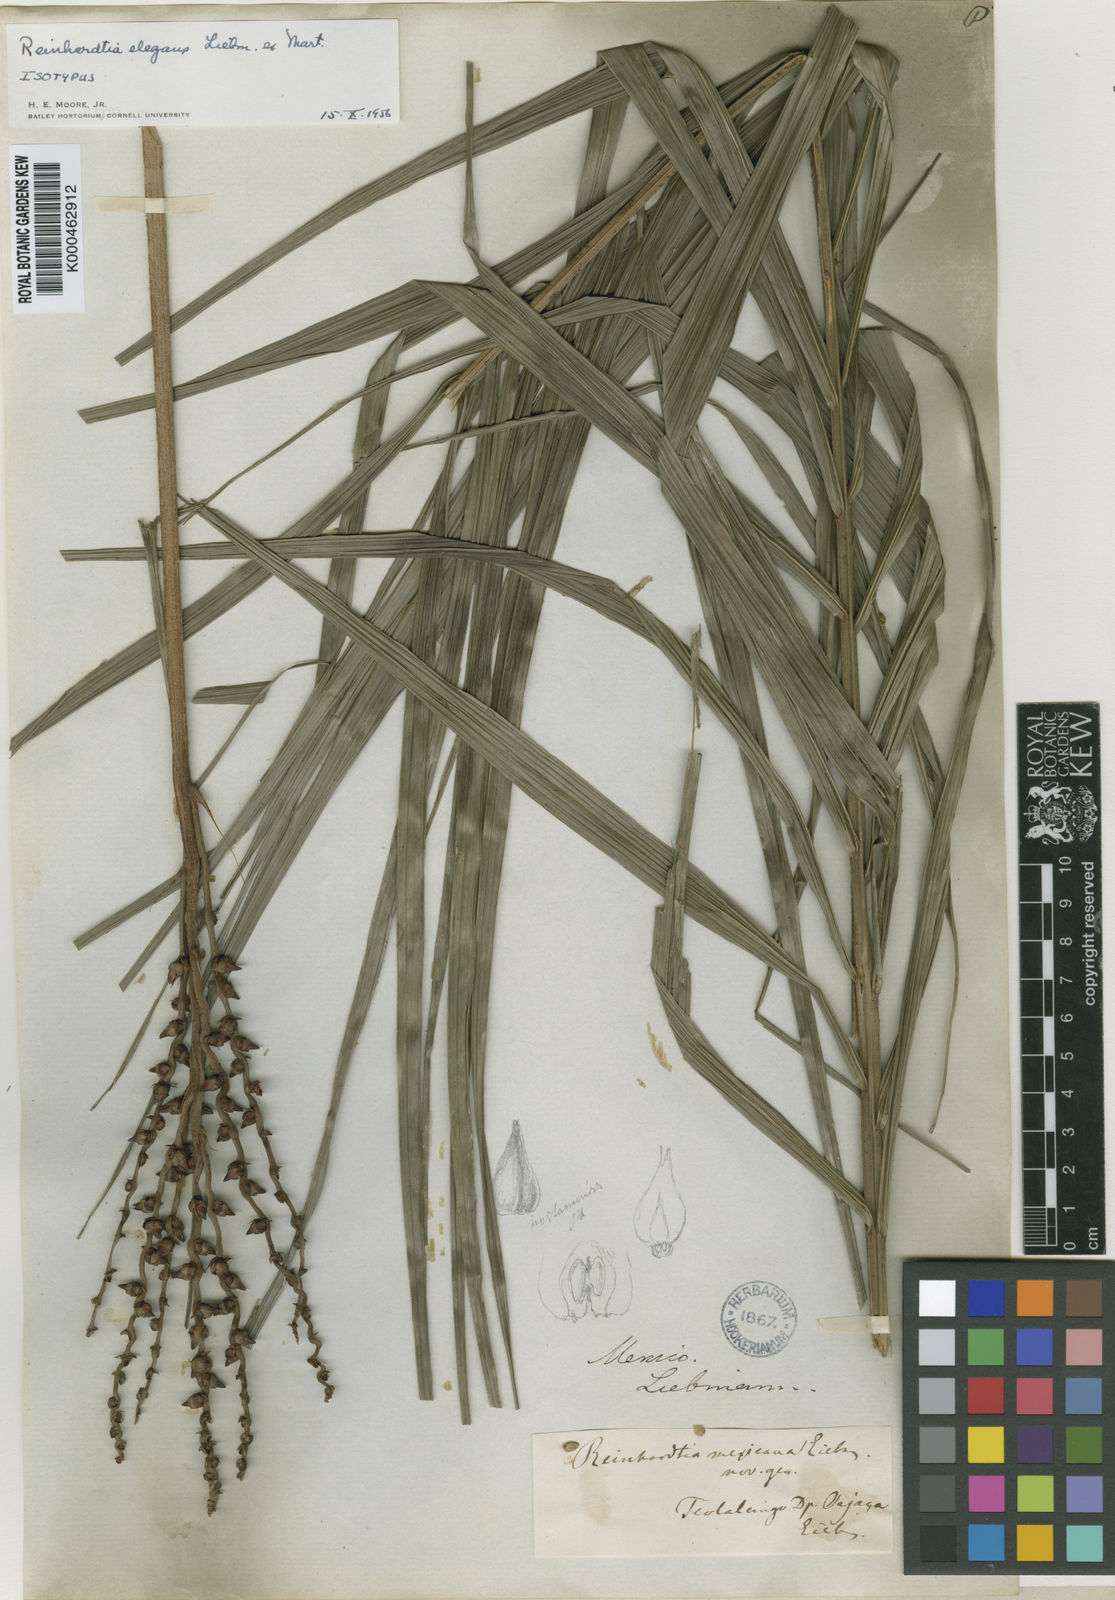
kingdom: Plantae
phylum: Tracheophyta
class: Liliopsida
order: Arecales
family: Arecaceae
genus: Reinhardtia
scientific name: Reinhardtia elegans
